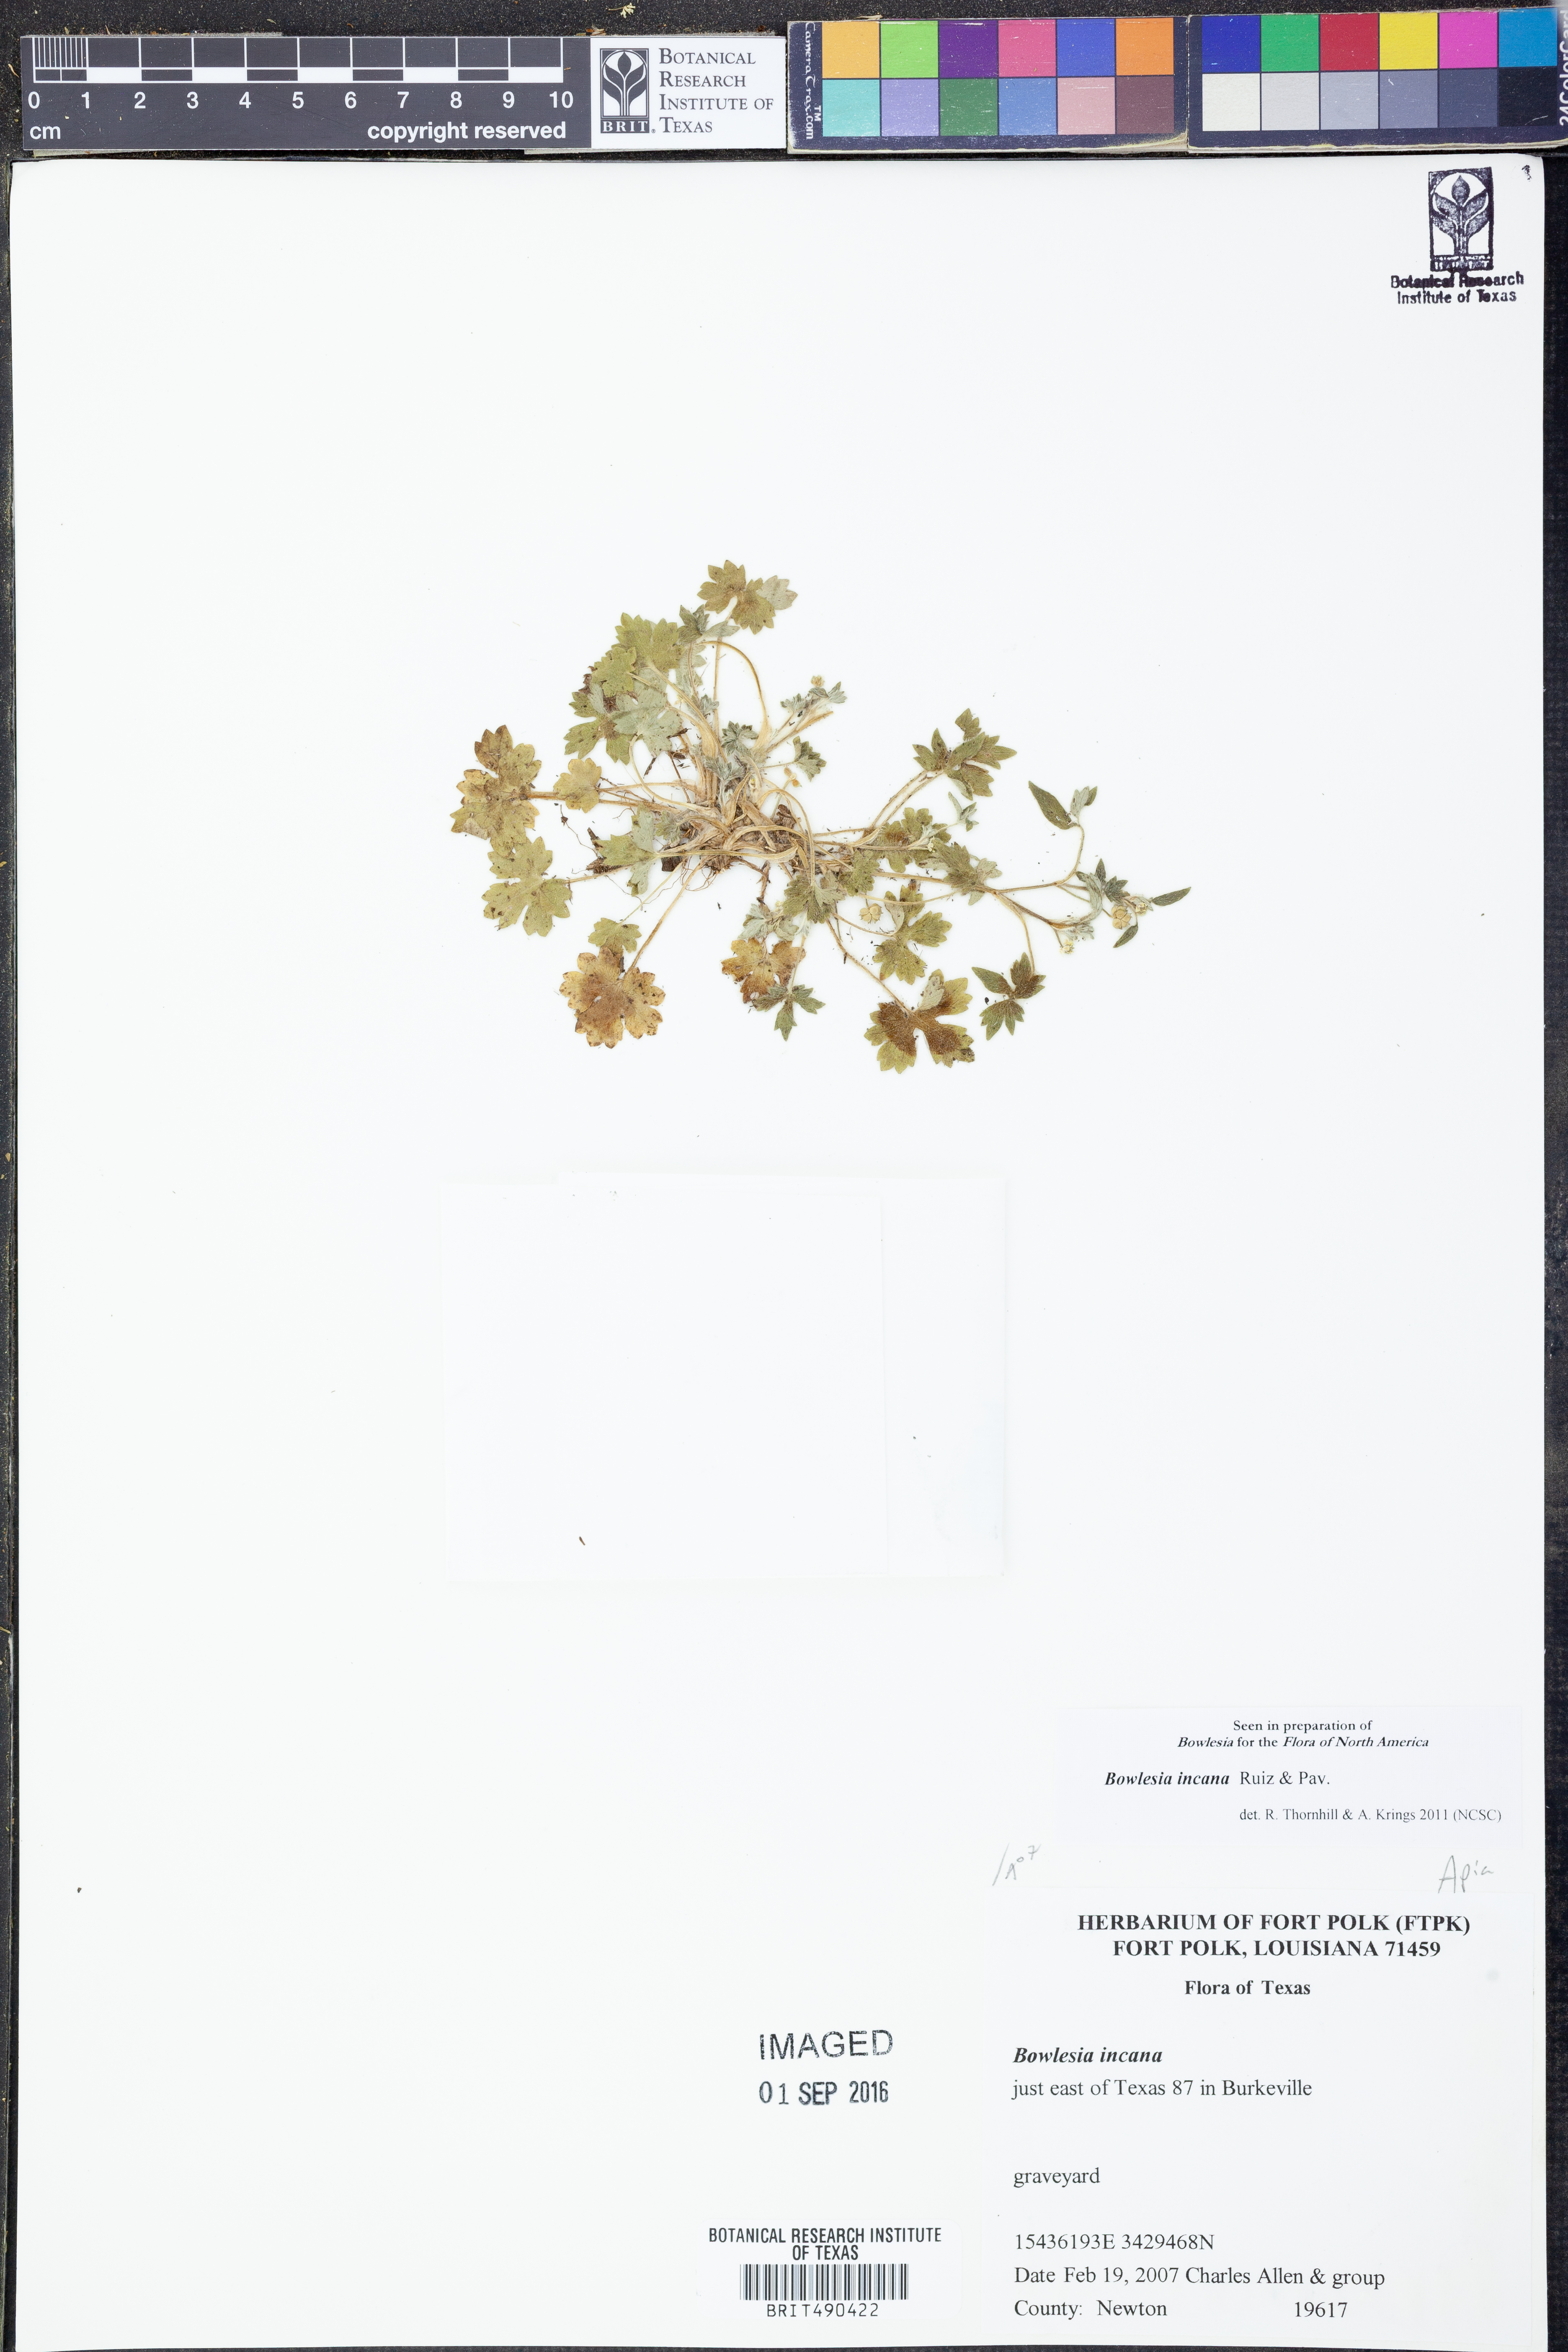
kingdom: Plantae
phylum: Tracheophyta
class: Magnoliopsida
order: Apiales
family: Apiaceae
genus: Bowlesia
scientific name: Bowlesia incana
